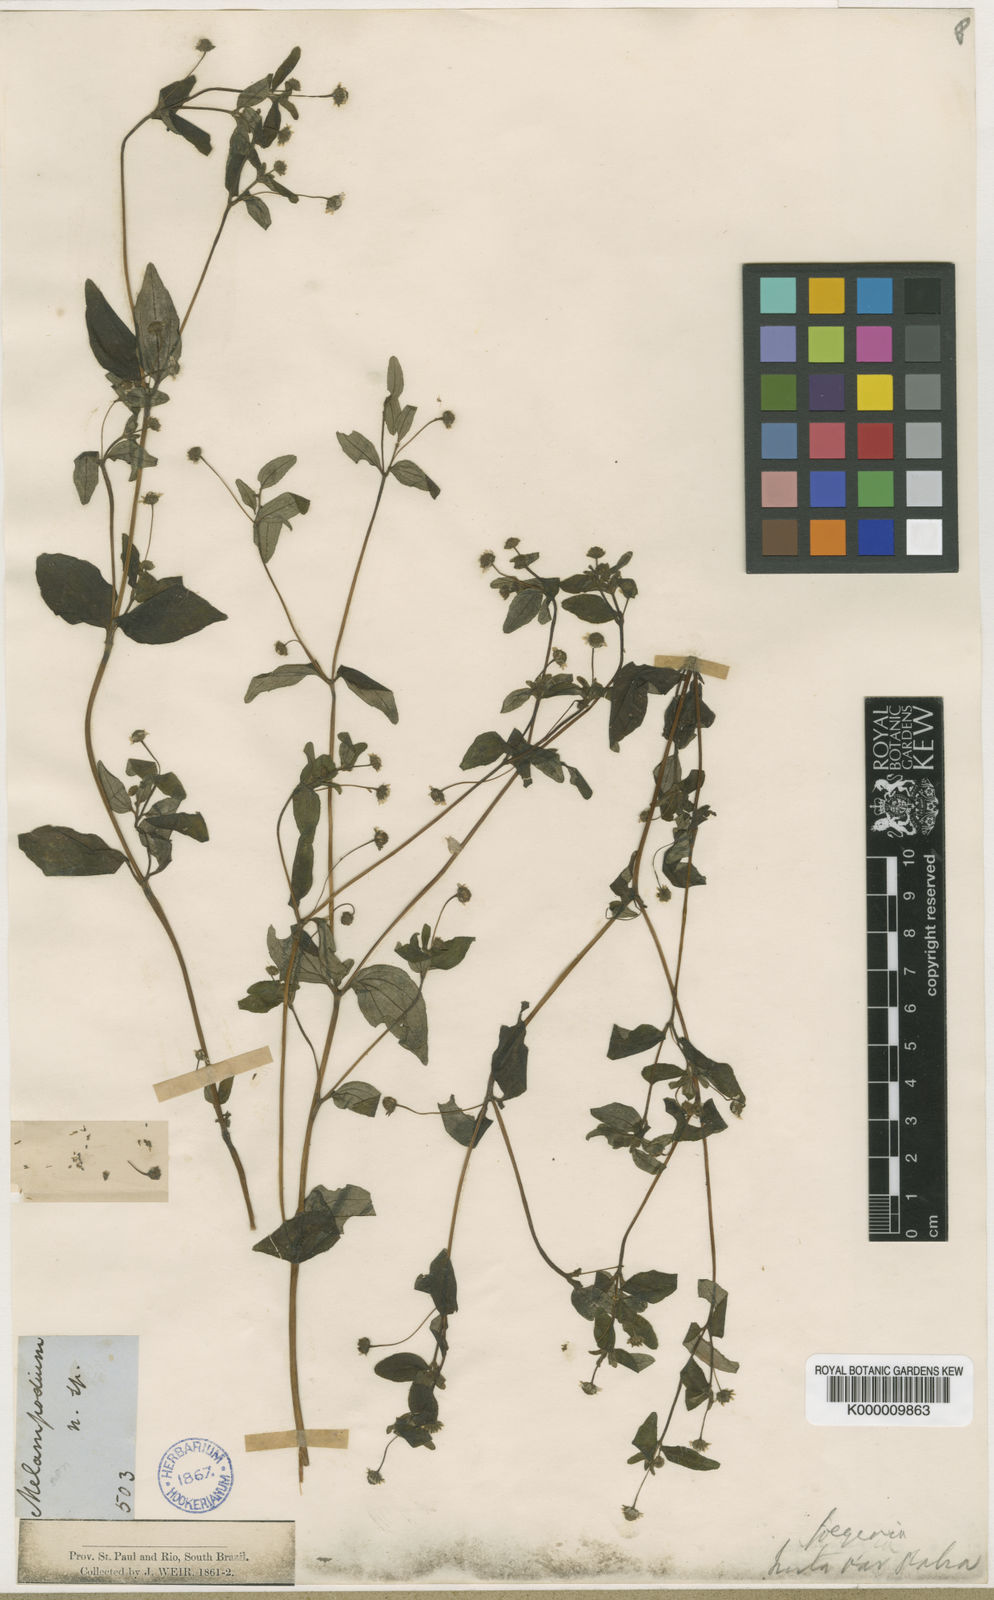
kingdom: Plantae
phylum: Tracheophyta
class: Magnoliopsida
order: Asterales
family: Asteraceae
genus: Jaegeria
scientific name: Jaegeria hirta
